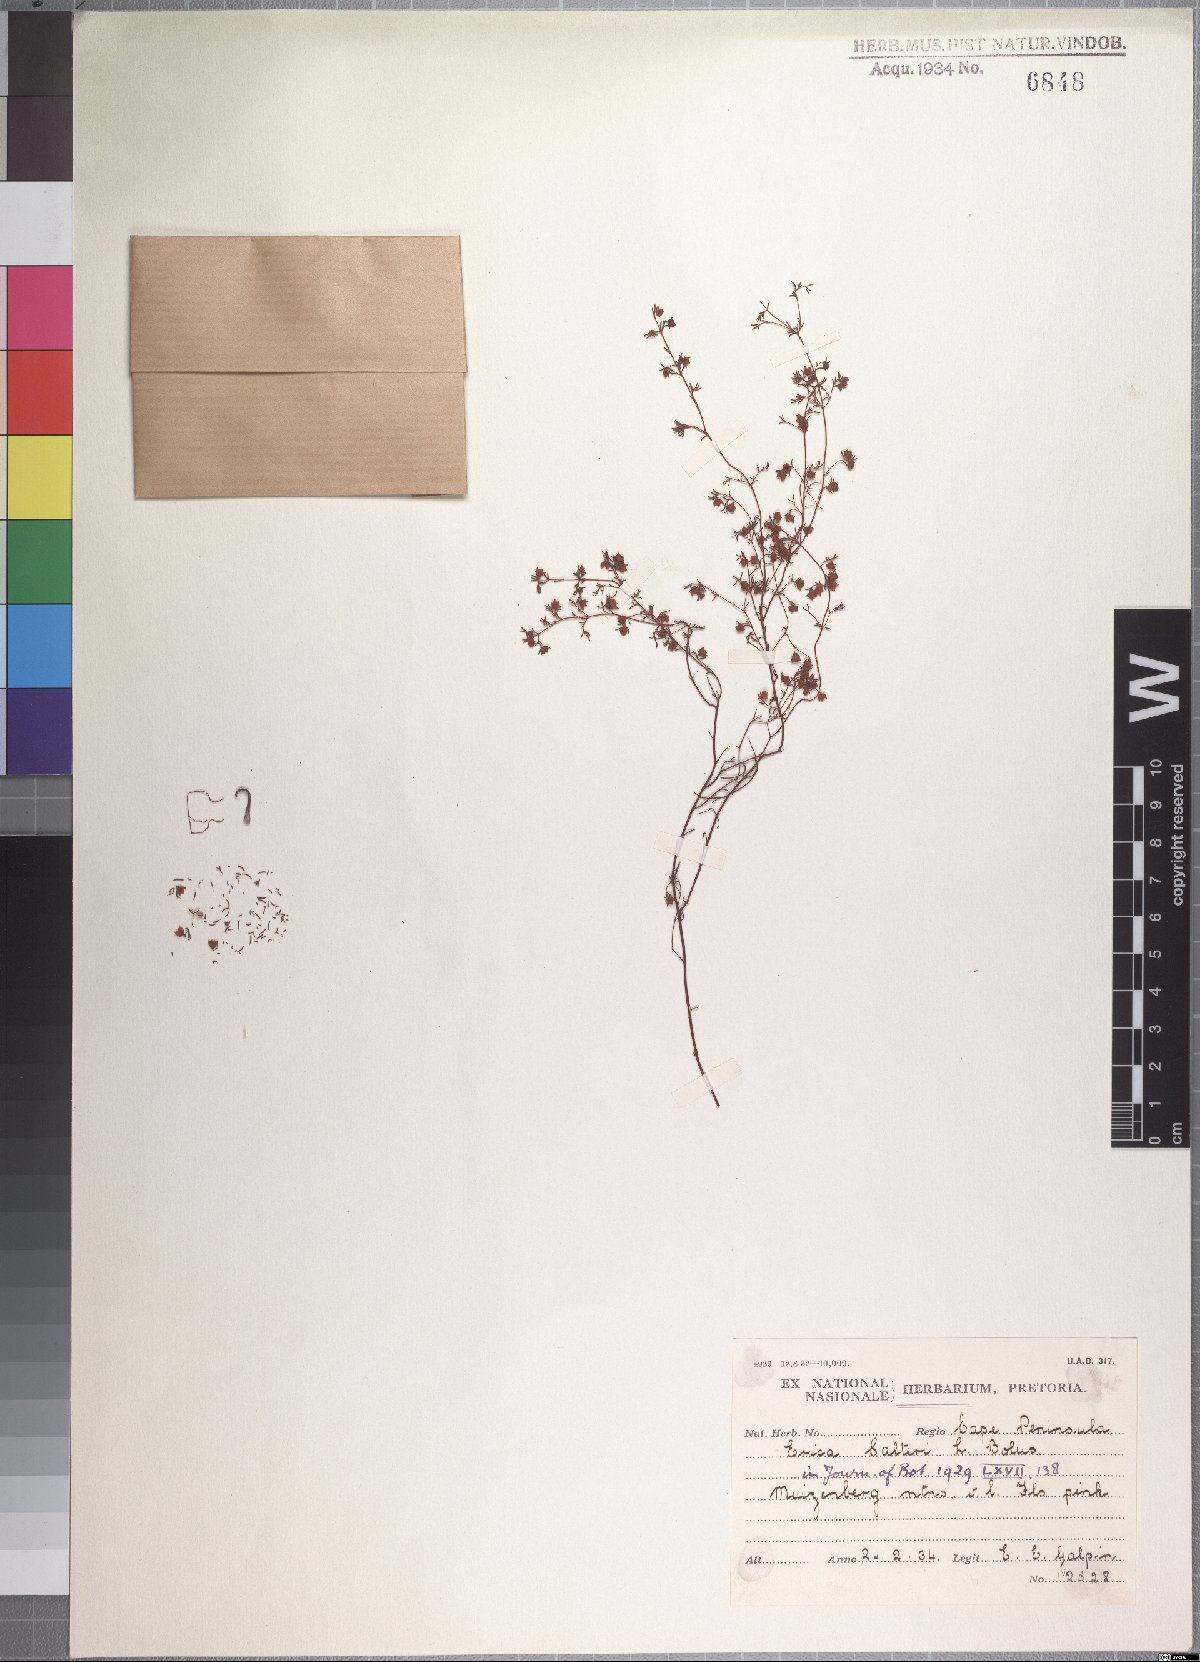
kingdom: Plantae
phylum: Tracheophyta
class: Magnoliopsida
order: Ericales
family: Ericaceae
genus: Erica
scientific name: Erica salteri
